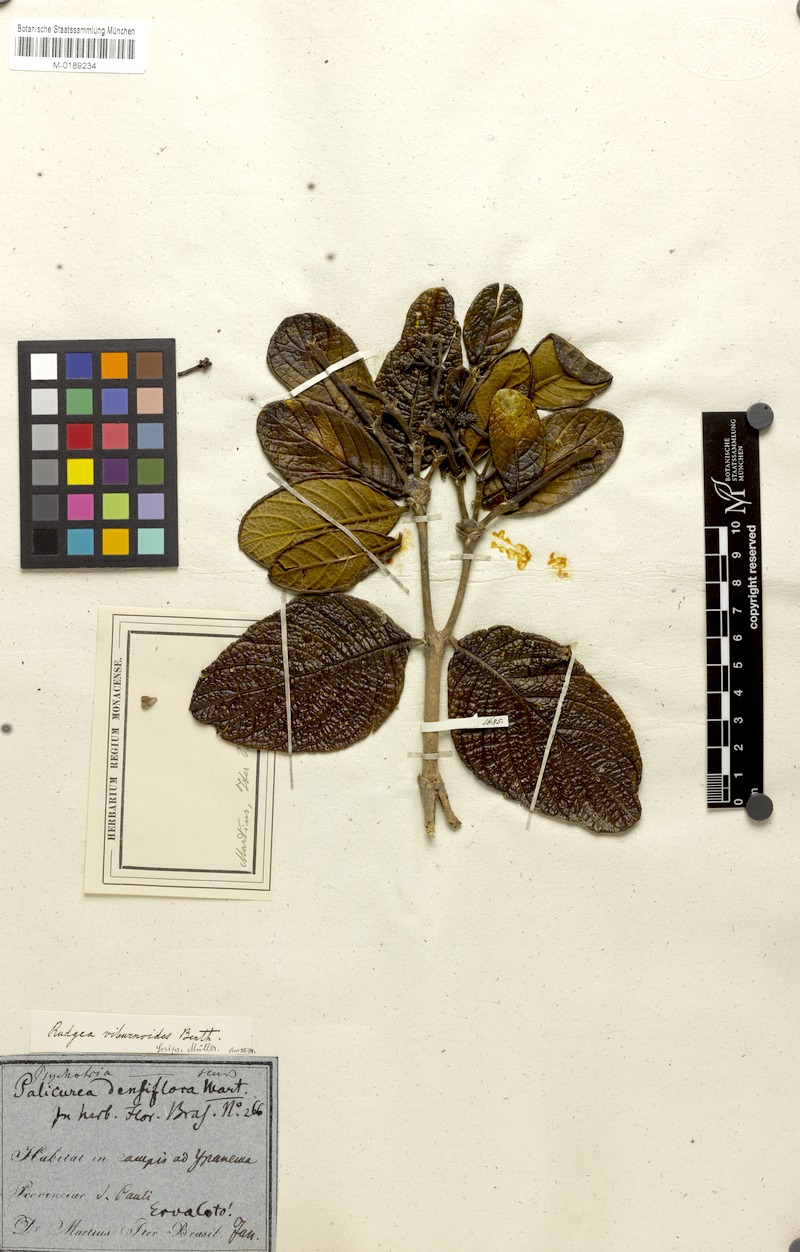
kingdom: Plantae
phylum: Tracheophyta
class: Magnoliopsida
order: Gentianales
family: Rubiaceae
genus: Rudgea
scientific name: Rudgea viburnoides
